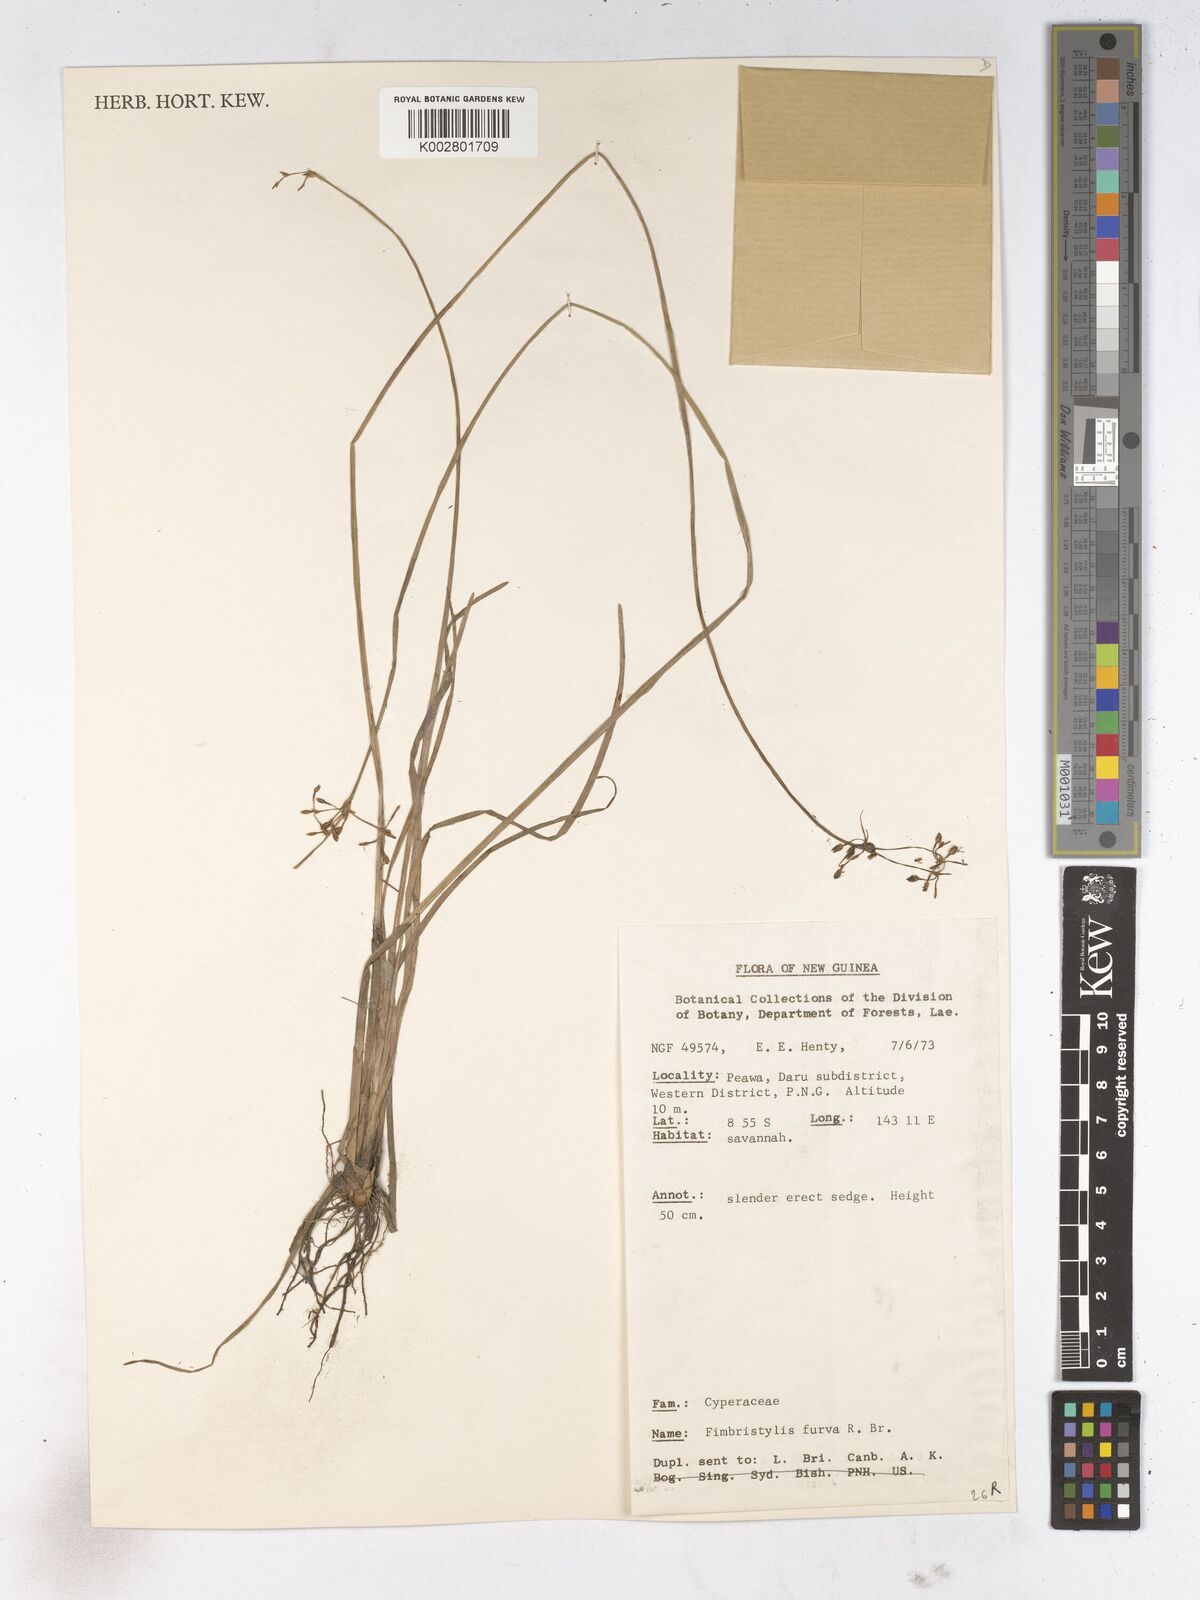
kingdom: Plantae
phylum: Tracheophyta
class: Liliopsida
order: Poales
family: Cyperaceae
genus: Fimbristylis
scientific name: Fimbristylis furva
